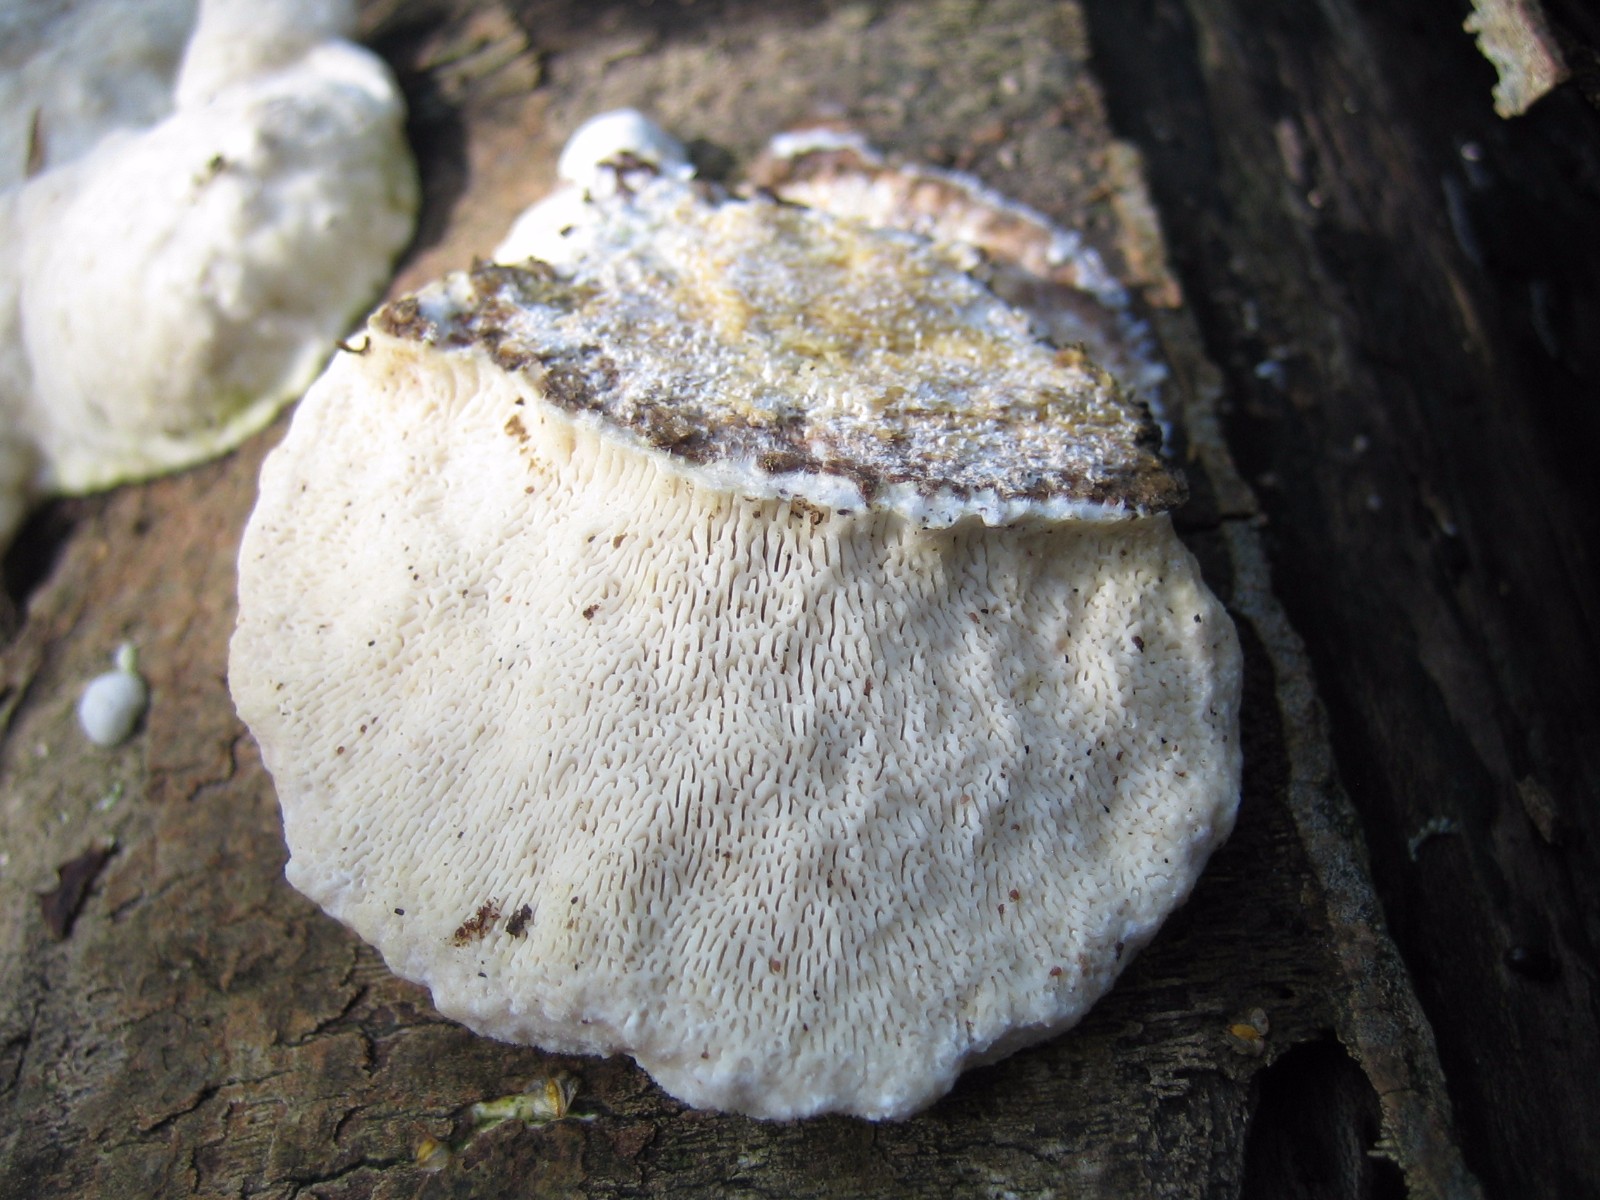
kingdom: Fungi
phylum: Basidiomycota
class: Agaricomycetes
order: Polyporales
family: Polyporaceae
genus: Trametes
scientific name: Trametes gibbosa
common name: puklet læderporesvamp
